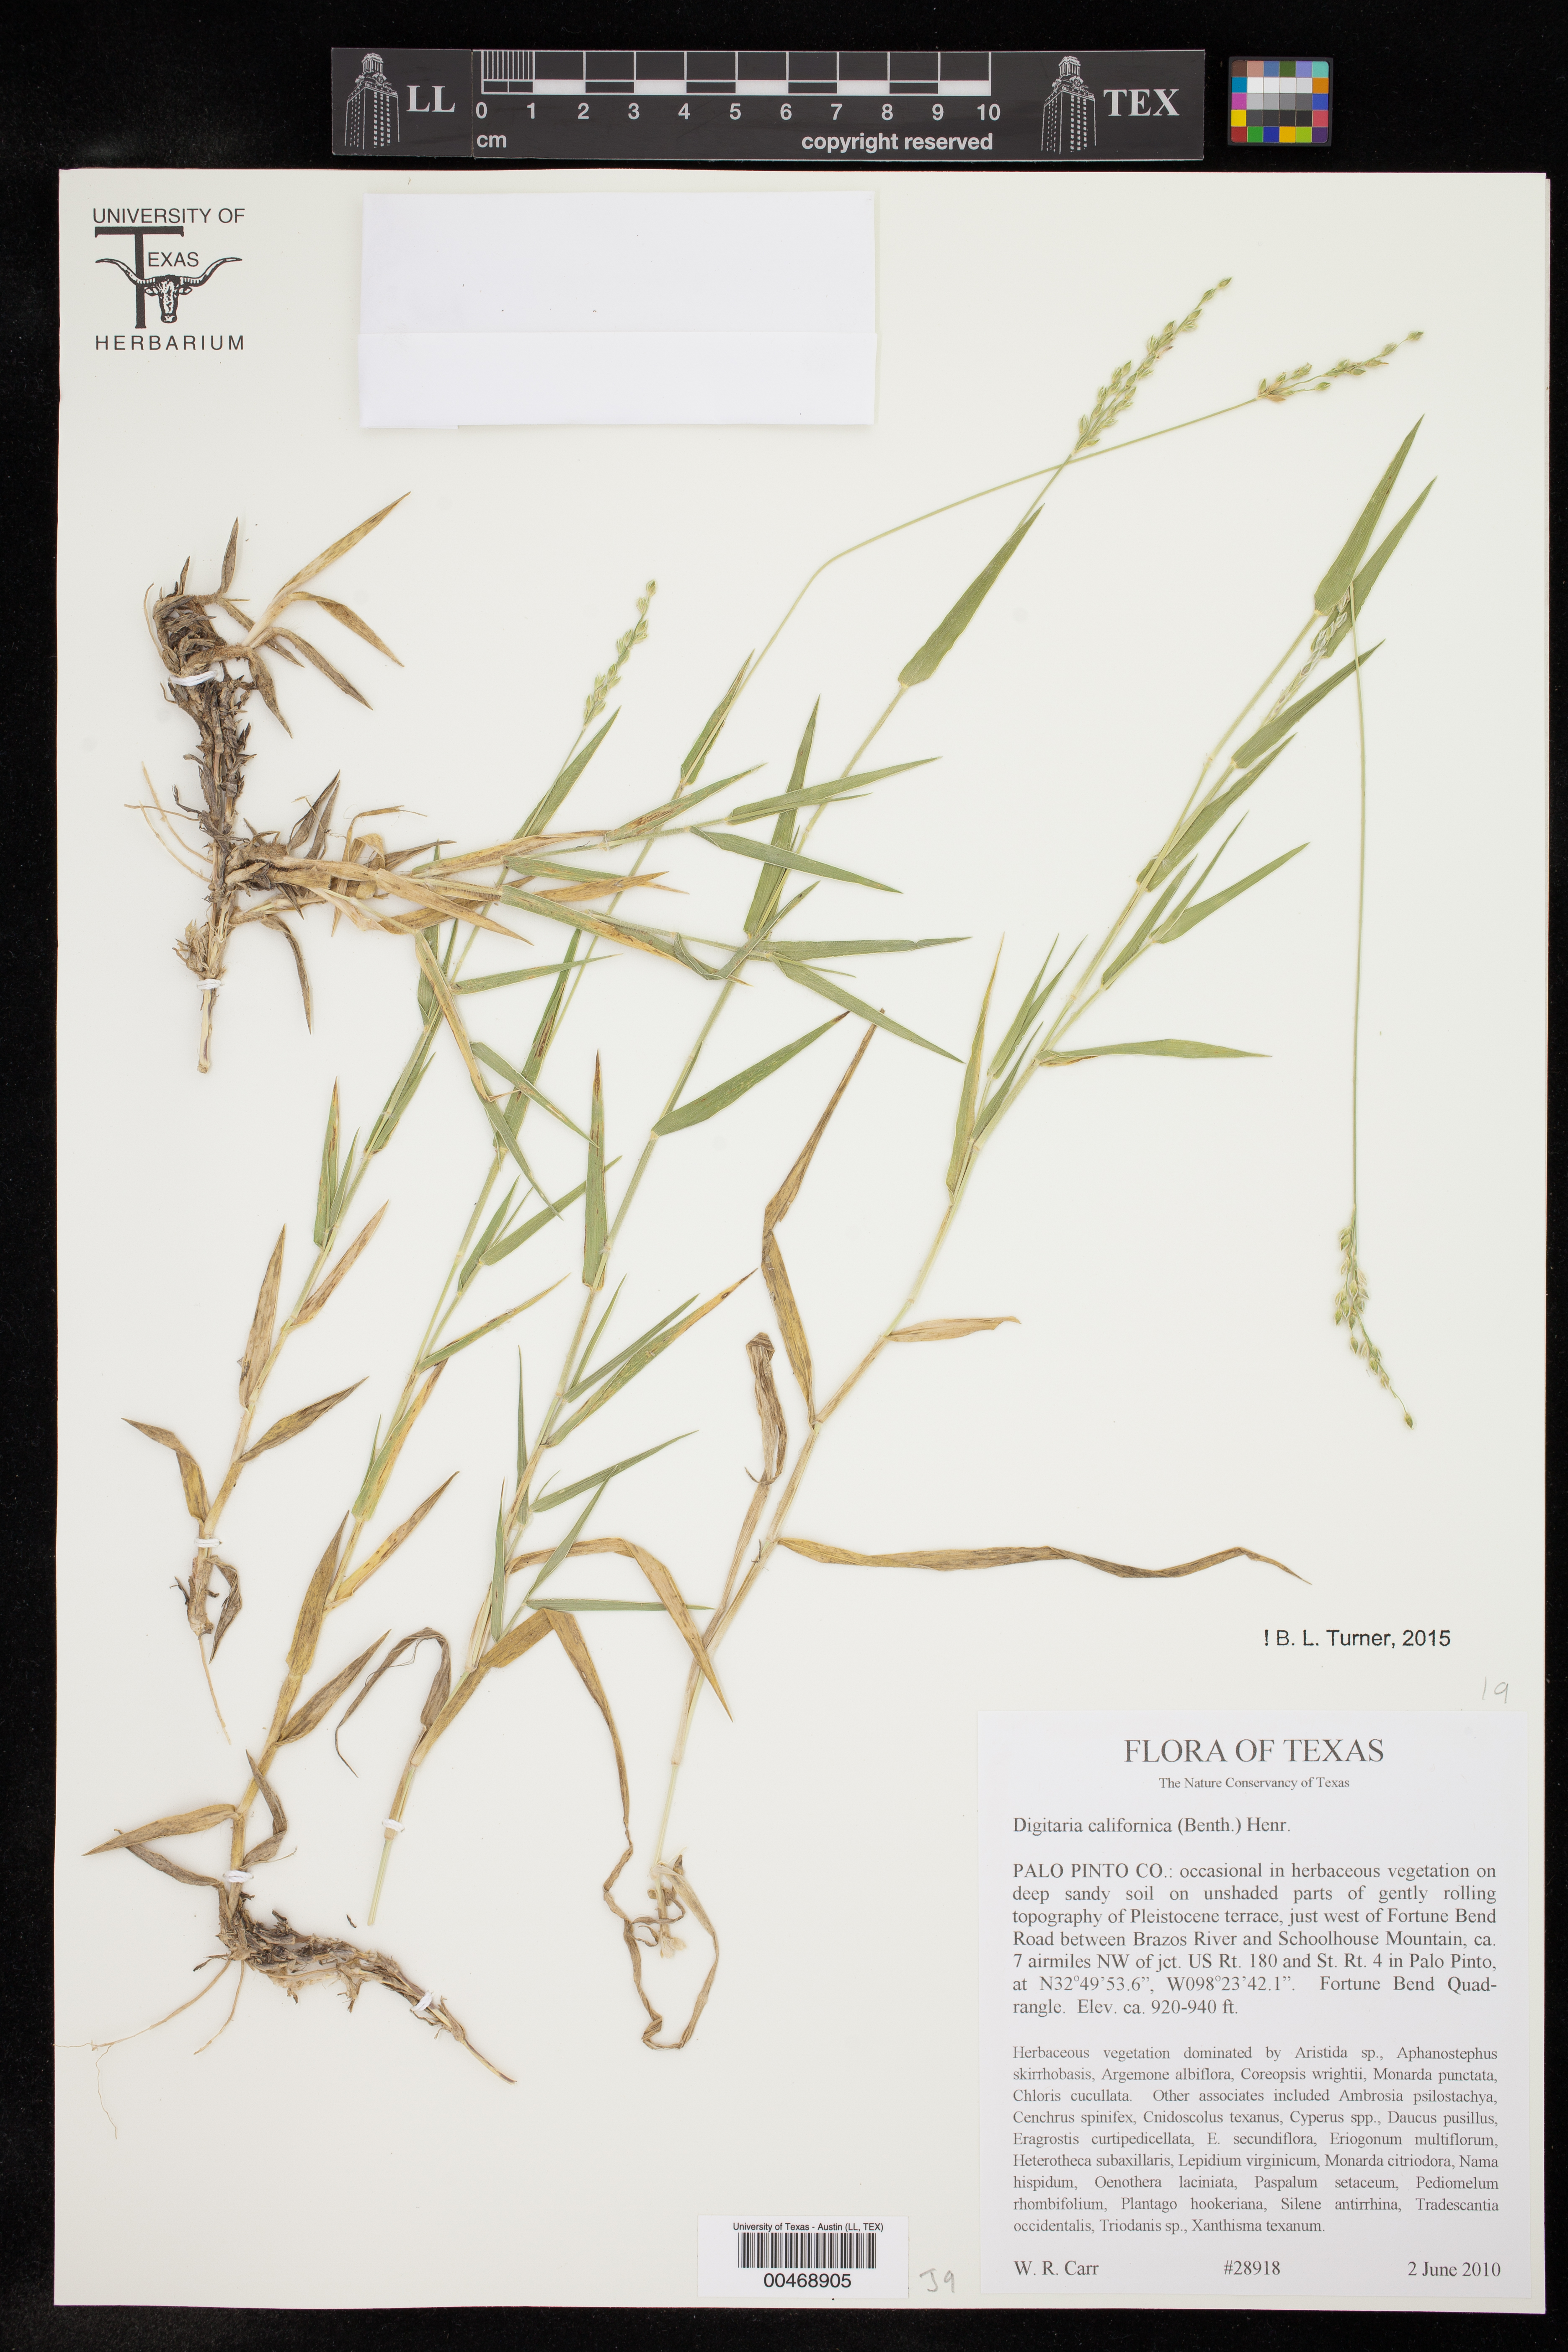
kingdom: Plantae
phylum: Tracheophyta
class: Liliopsida
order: Poales
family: Poaceae
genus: Digitaria
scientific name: Digitaria californica
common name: Arizona cottontop
